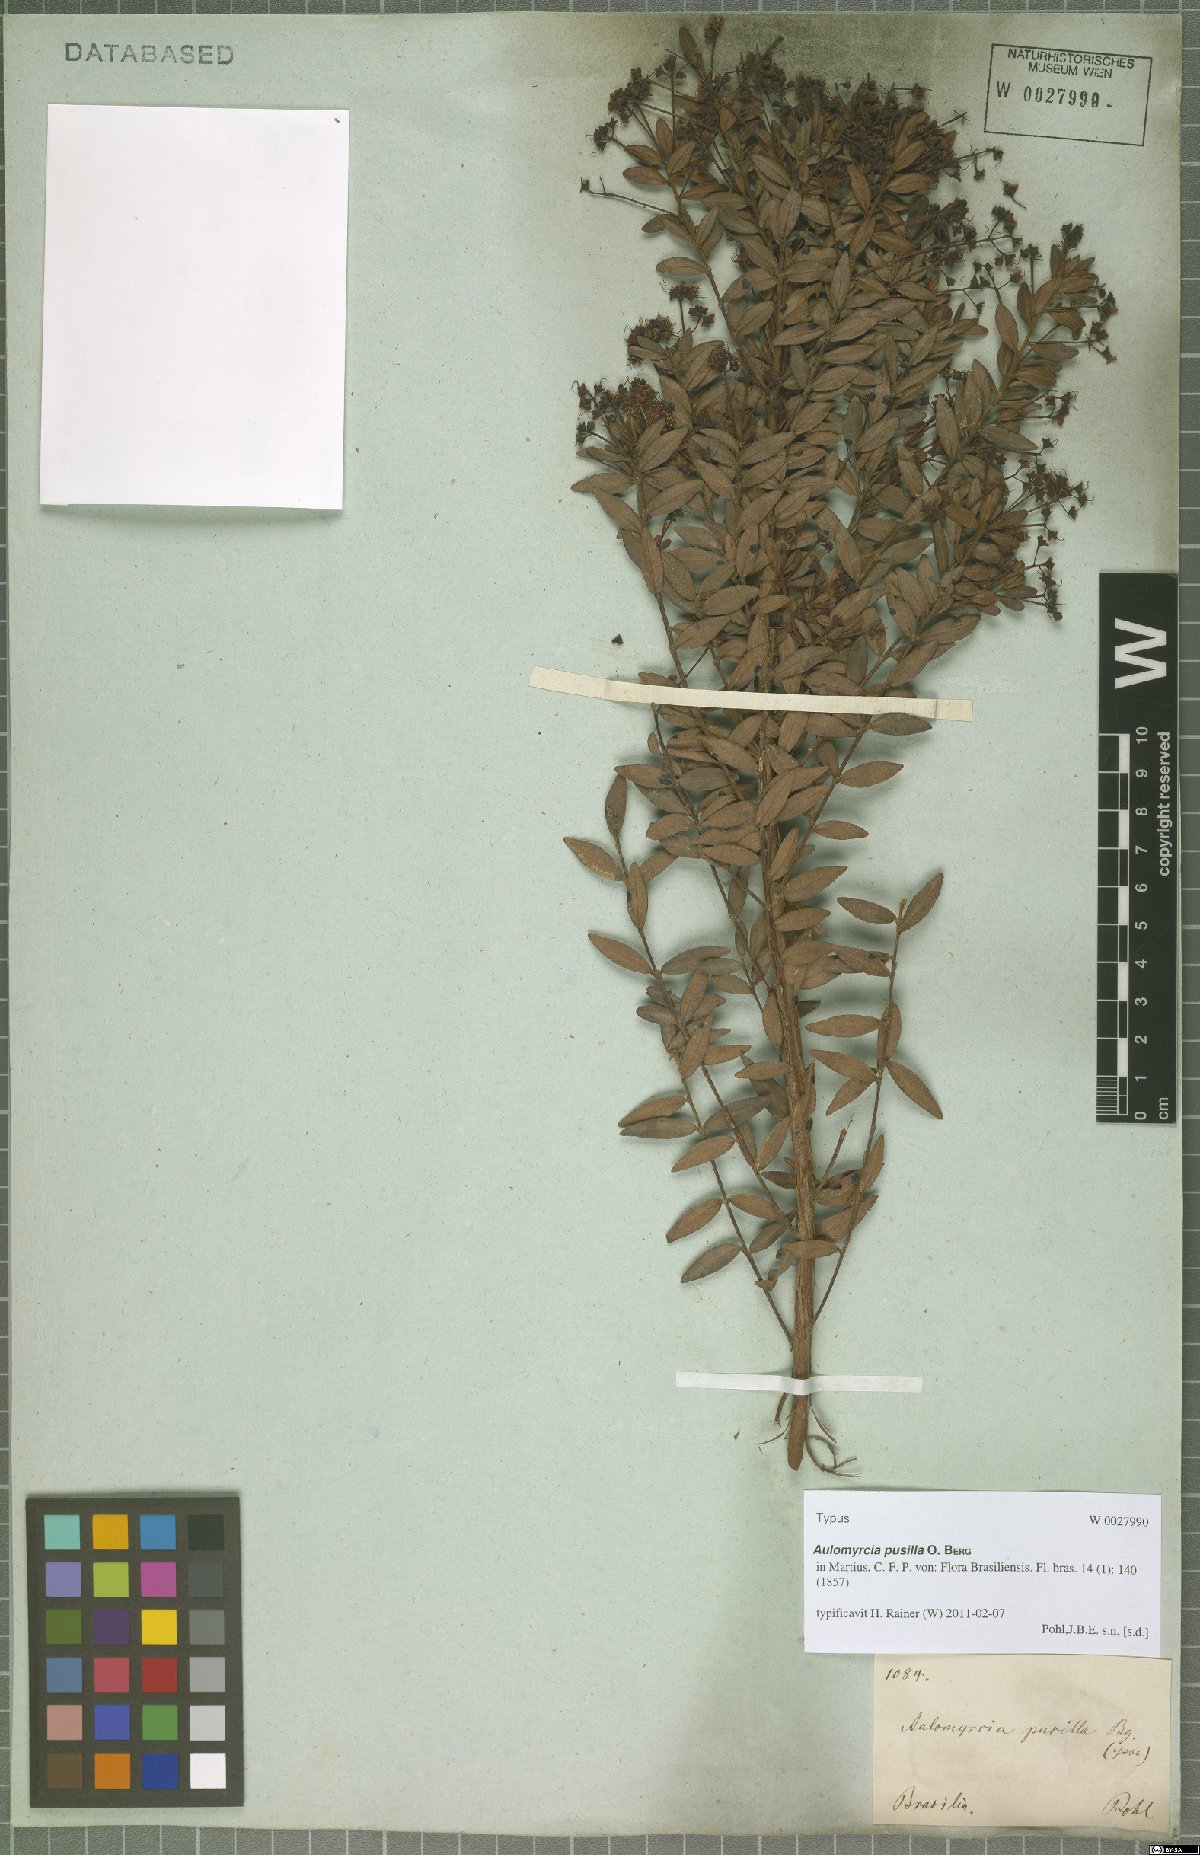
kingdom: Plantae
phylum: Tracheophyta
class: Magnoliopsida
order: Myrtales
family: Myrtaceae
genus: Myrcia
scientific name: Myrcia guianensis
